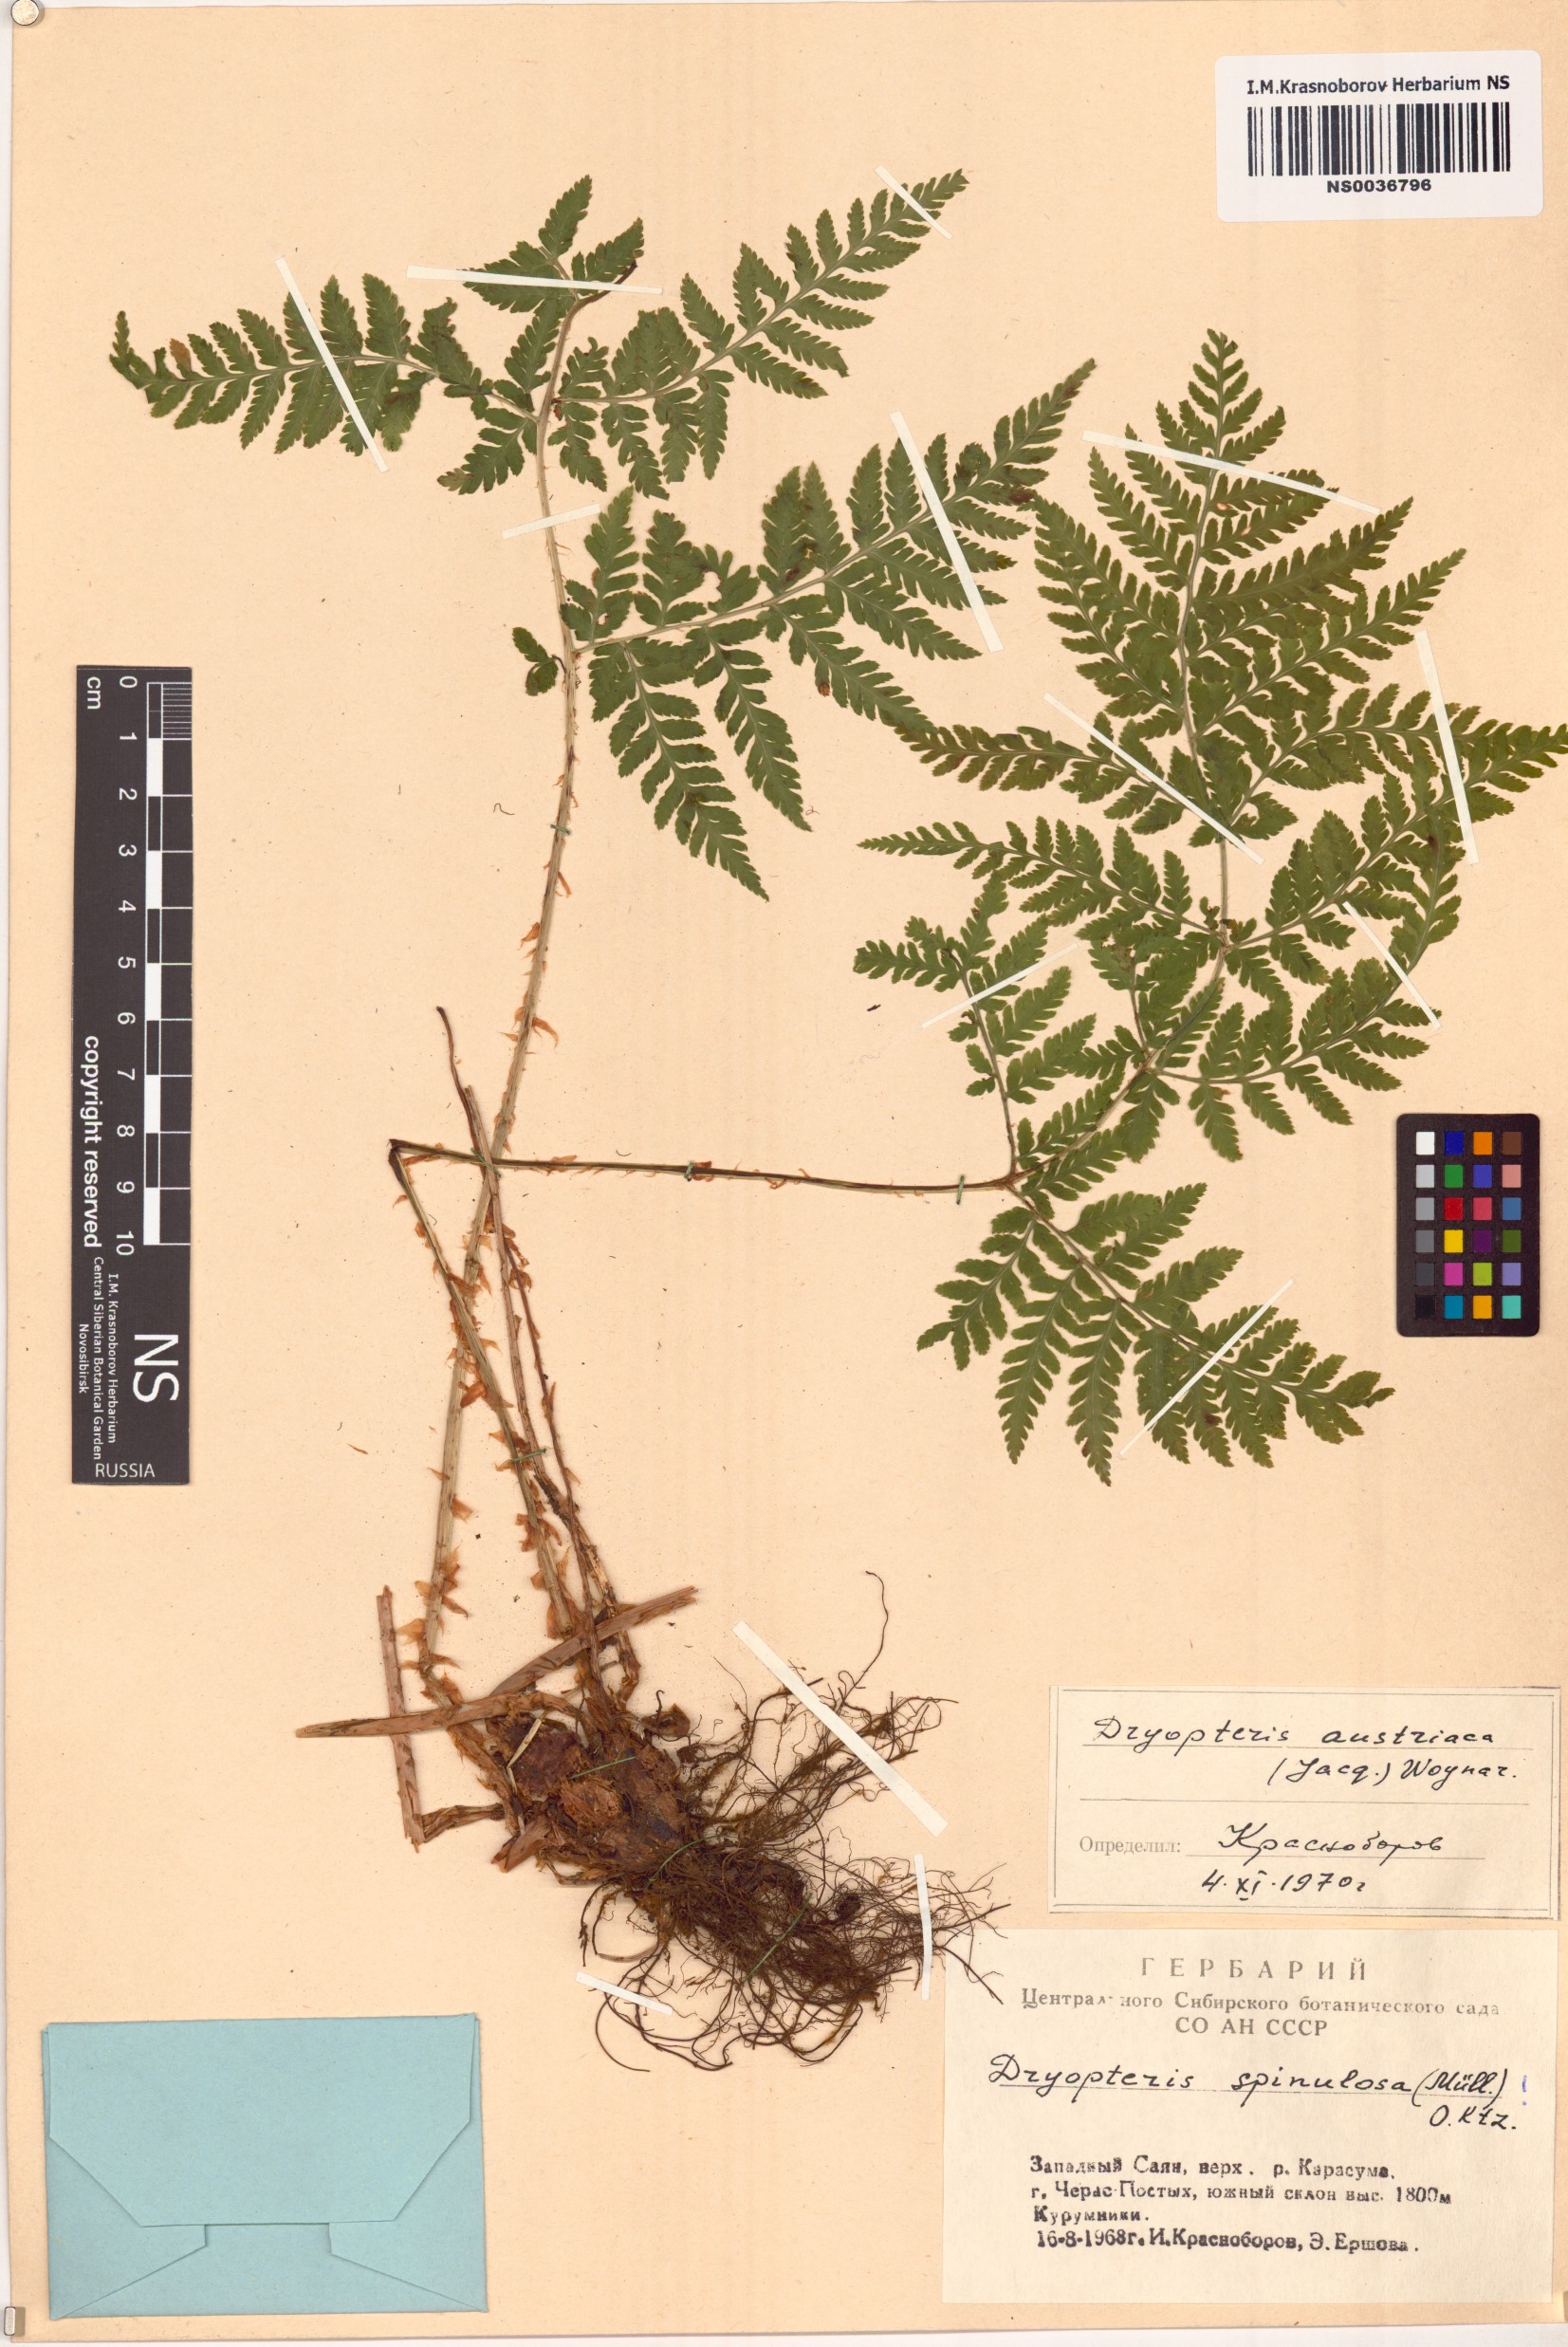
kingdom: Plantae
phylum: Tracheophyta
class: Polypodiopsida
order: Polypodiales
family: Dryopteridaceae
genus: Dryopteris
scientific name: Dryopteris dilatata
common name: Broad buckler-fern
